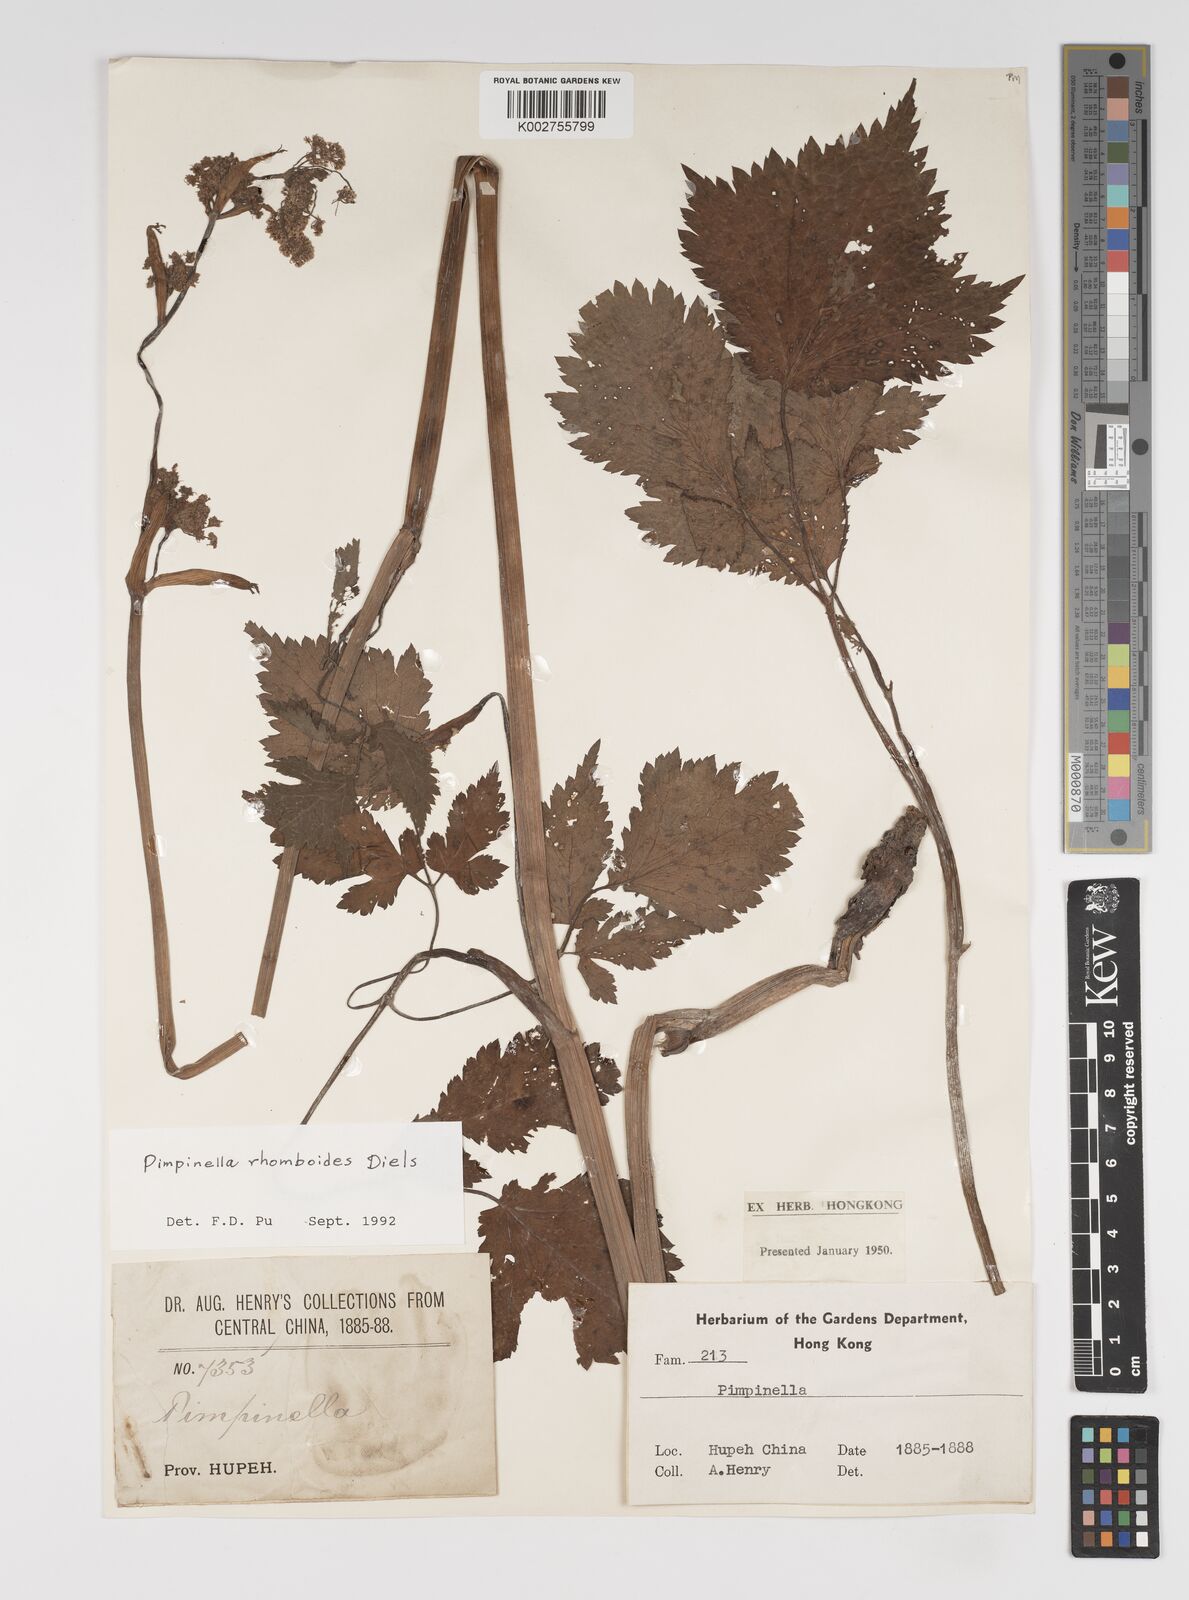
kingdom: Plantae
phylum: Tracheophyta
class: Magnoliopsida
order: Apiales
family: Apiaceae
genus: Pimpinella
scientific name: Pimpinella rhomboidea
